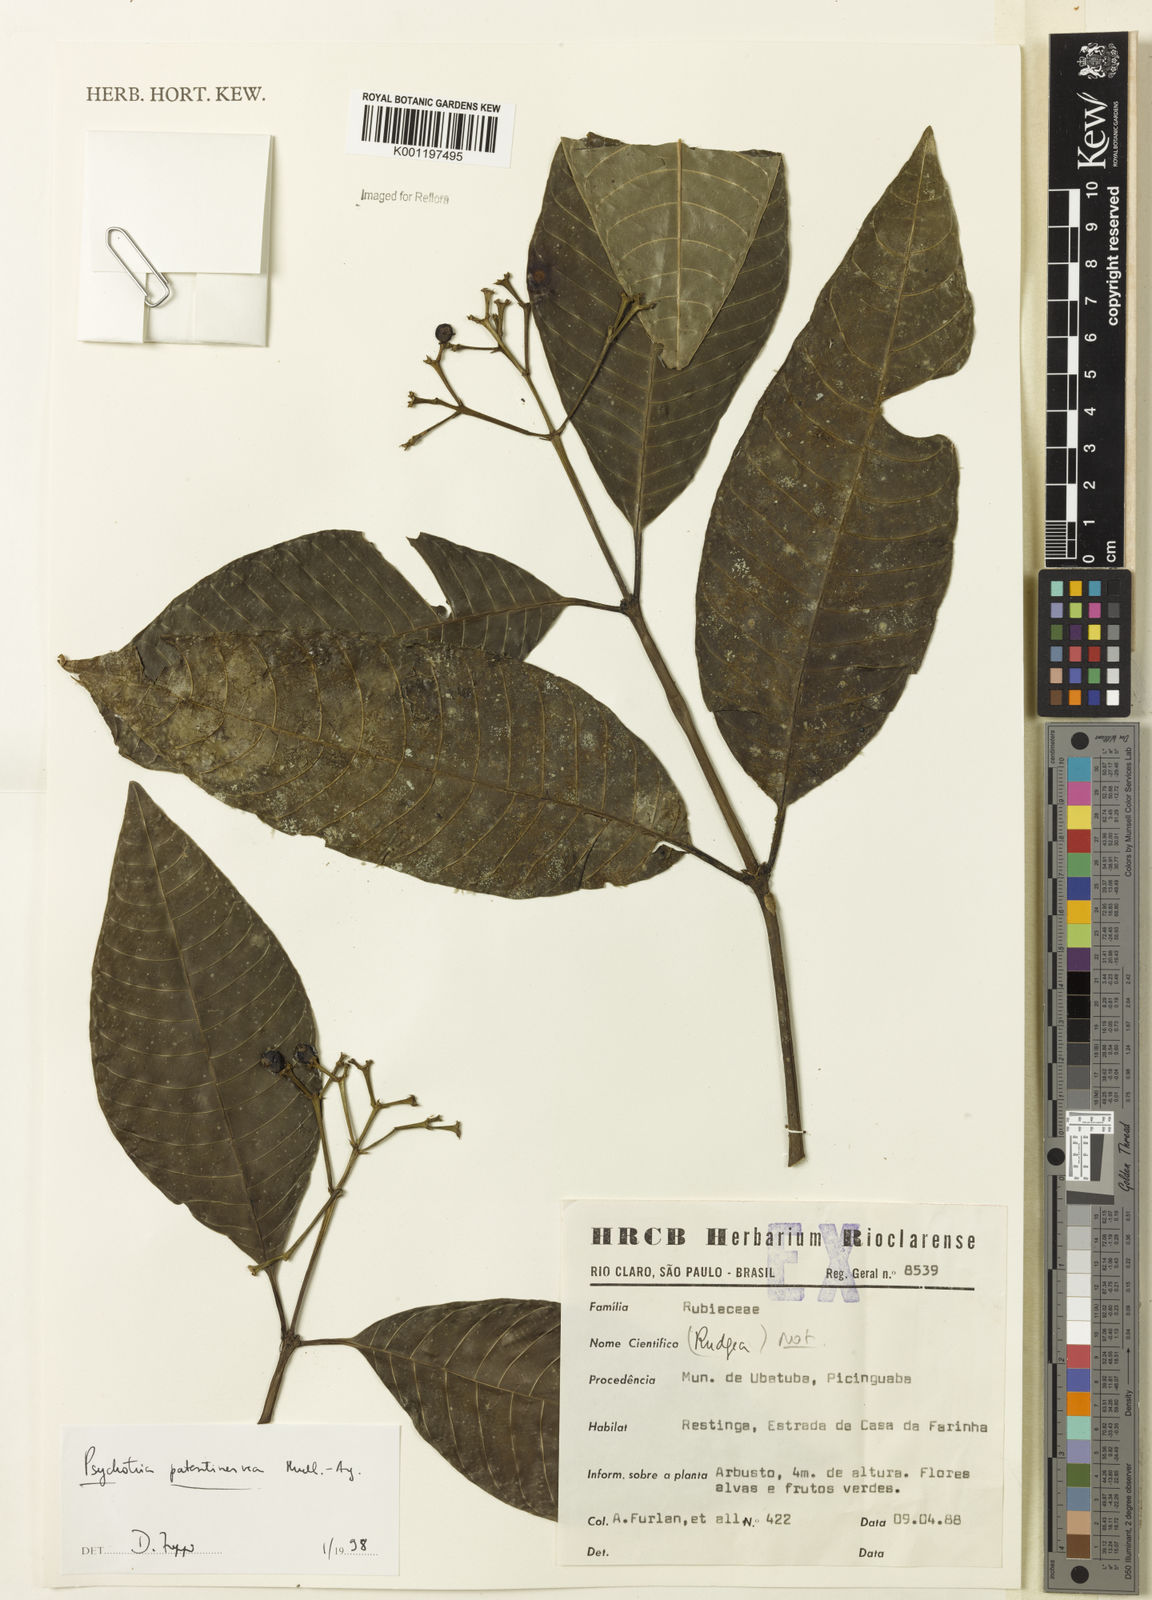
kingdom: Plantae
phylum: Tracheophyta
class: Magnoliopsida
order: Gentianales
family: Rubiaceae
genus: Psychotria
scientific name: Psychotria
